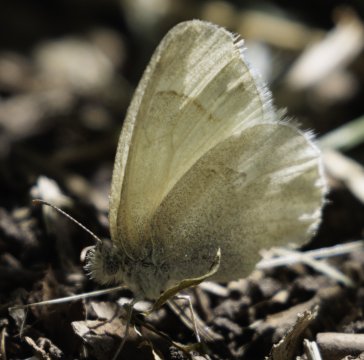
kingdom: Animalia
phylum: Arthropoda
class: Insecta
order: Lepidoptera
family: Nymphalidae
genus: Coenonympha
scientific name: Coenonympha tullia
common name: Large Heath
